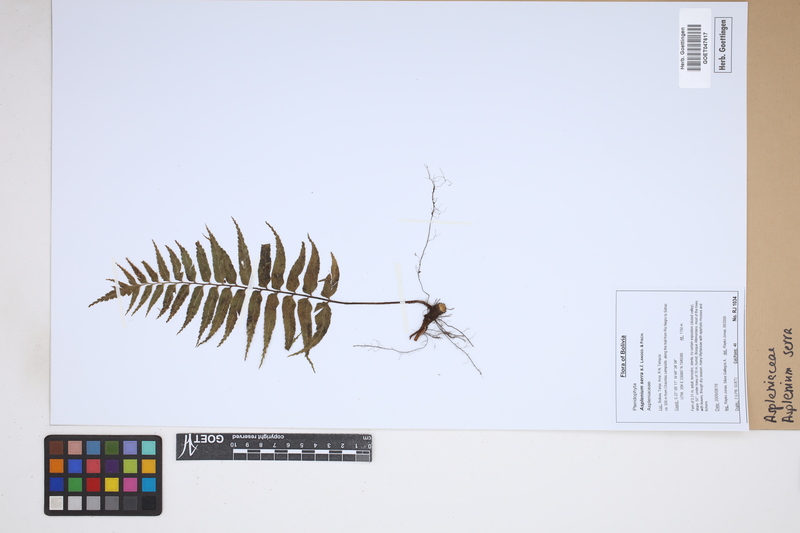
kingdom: Plantae
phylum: Tracheophyta
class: Polypodiopsida
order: Polypodiales
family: Aspleniaceae
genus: Asplenium
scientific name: Asplenium serra
